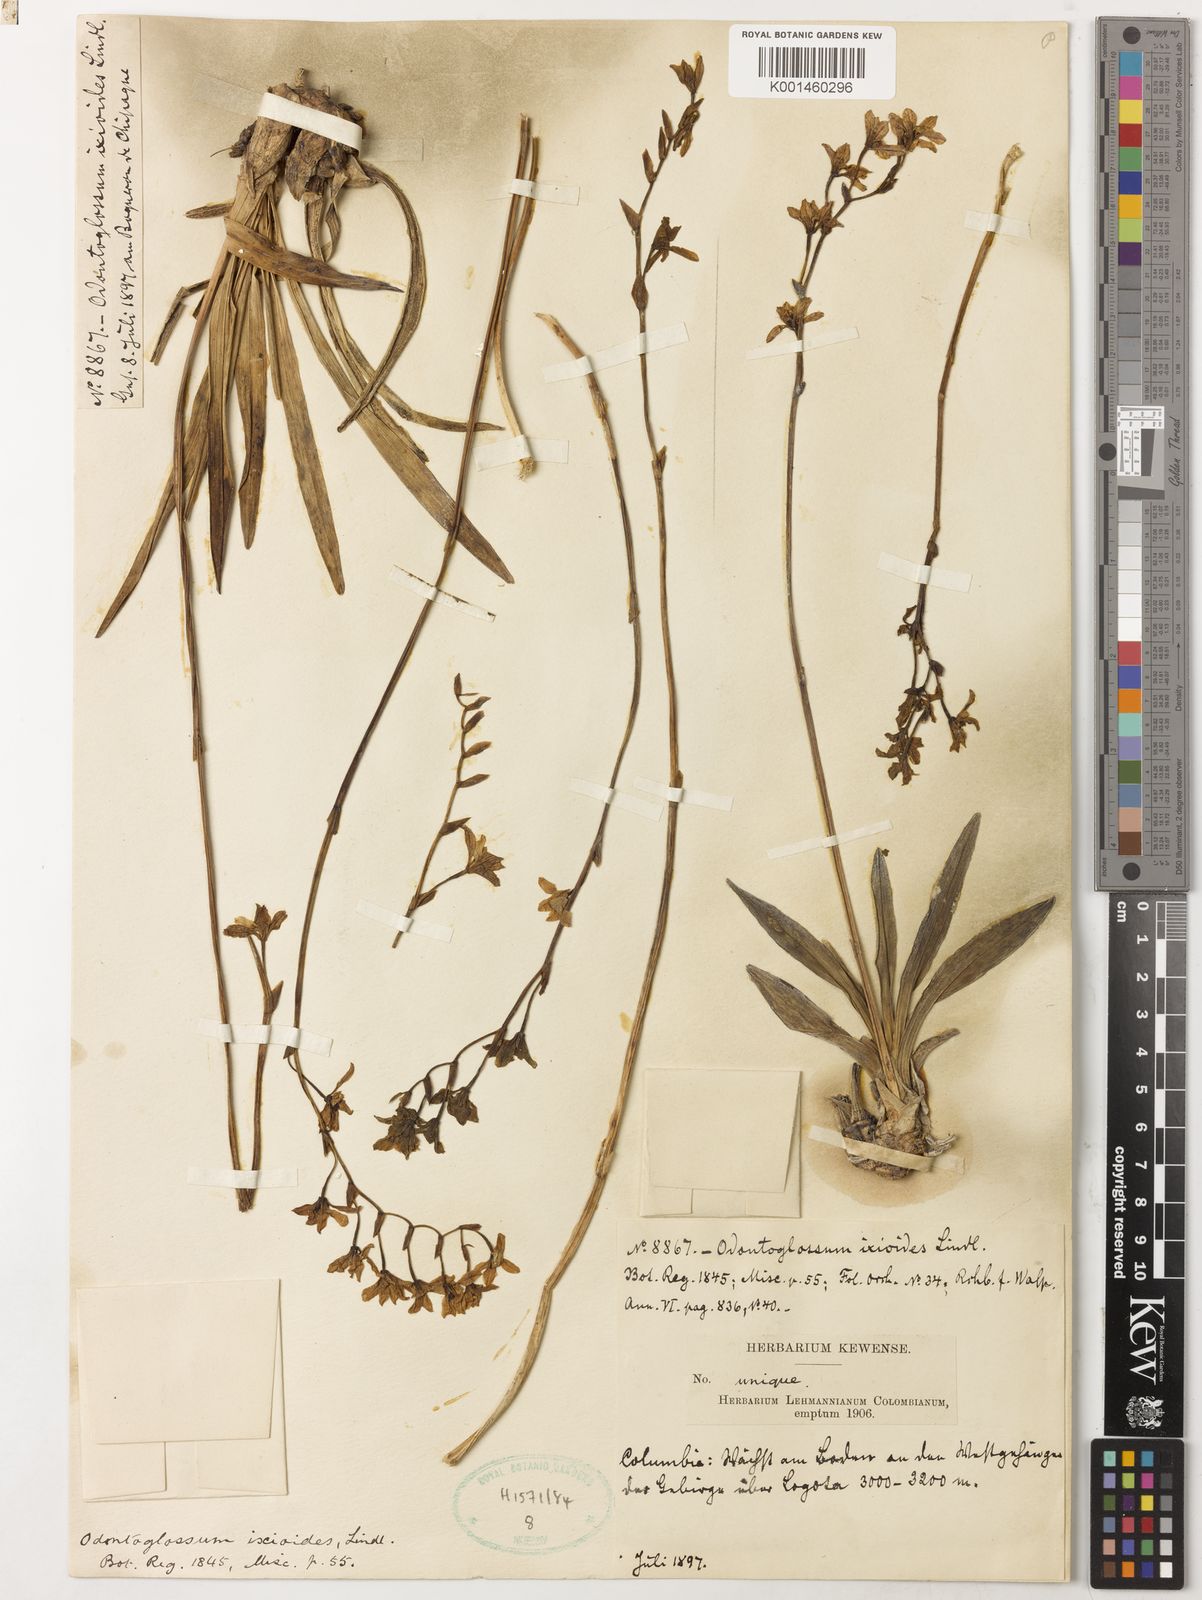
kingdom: Plantae
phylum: Tracheophyta
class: Liliopsida
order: Asparagales
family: Orchidaceae
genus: Cyrtochilum
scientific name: Cyrtochilum ixioides
